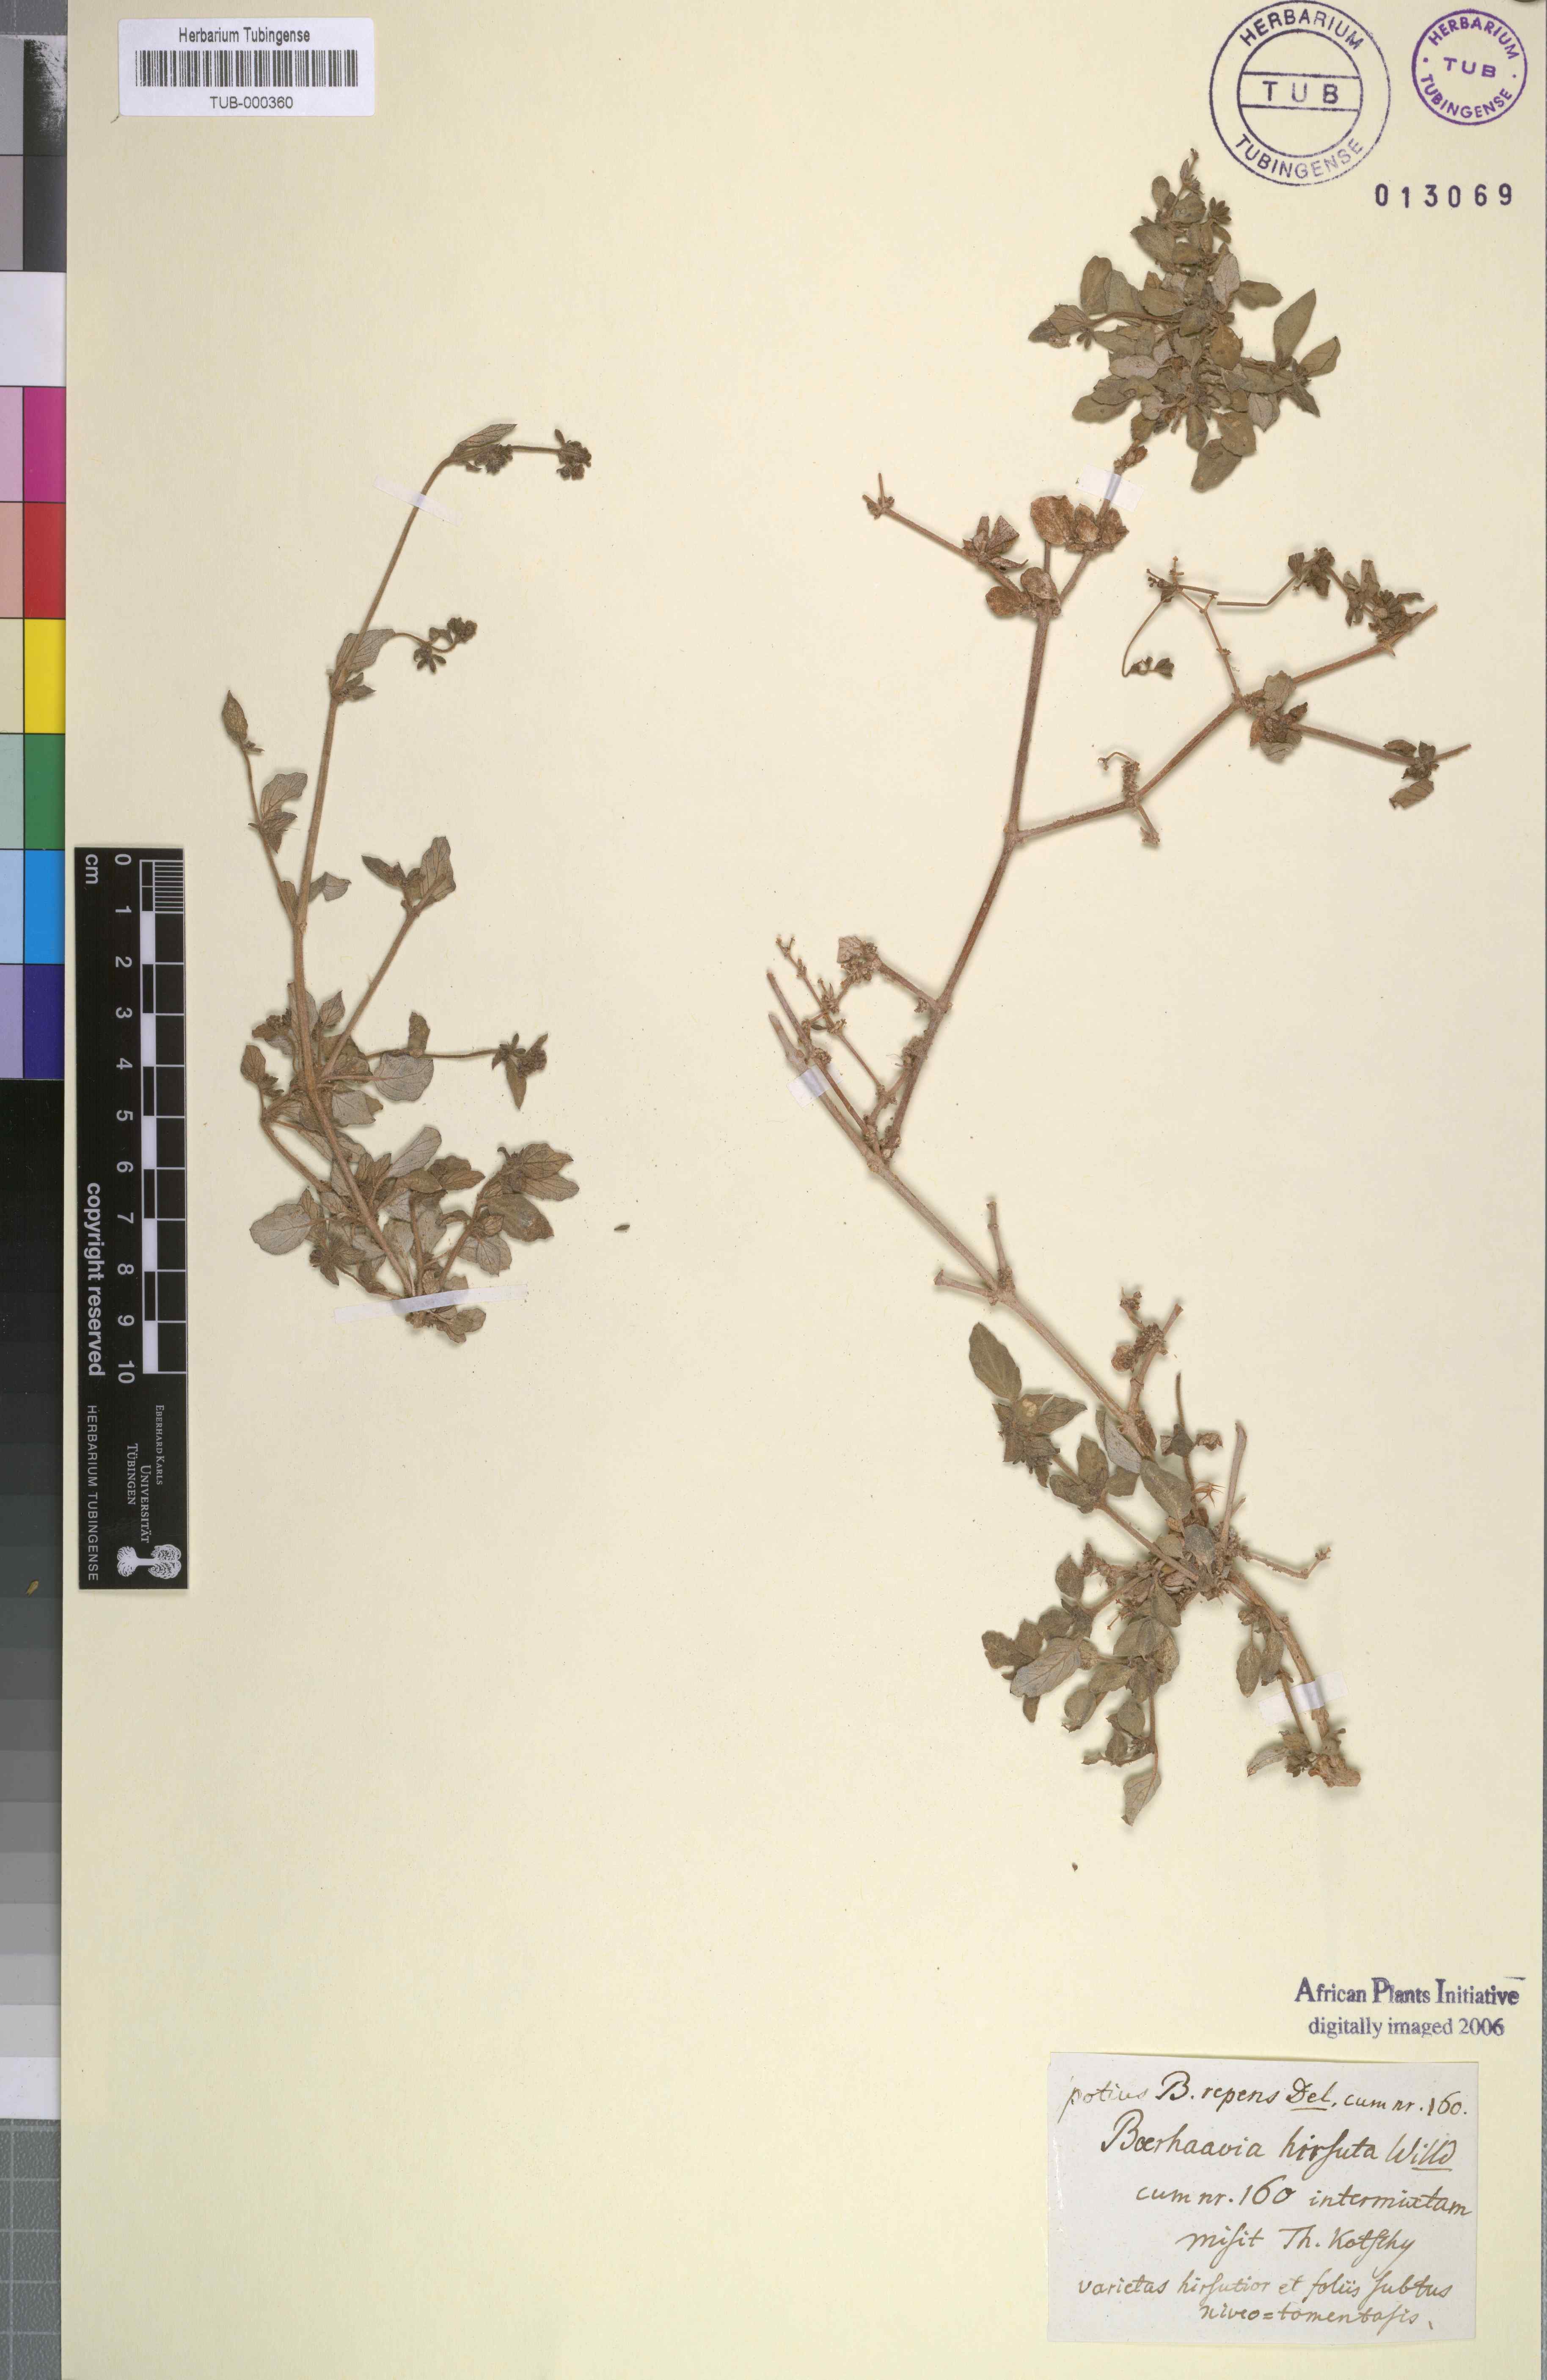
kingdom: Plantae
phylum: Tracheophyta
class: Magnoliopsida
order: Caryophyllales
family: Nyctaginaceae
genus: Boerhavia
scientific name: Boerhavia repens
